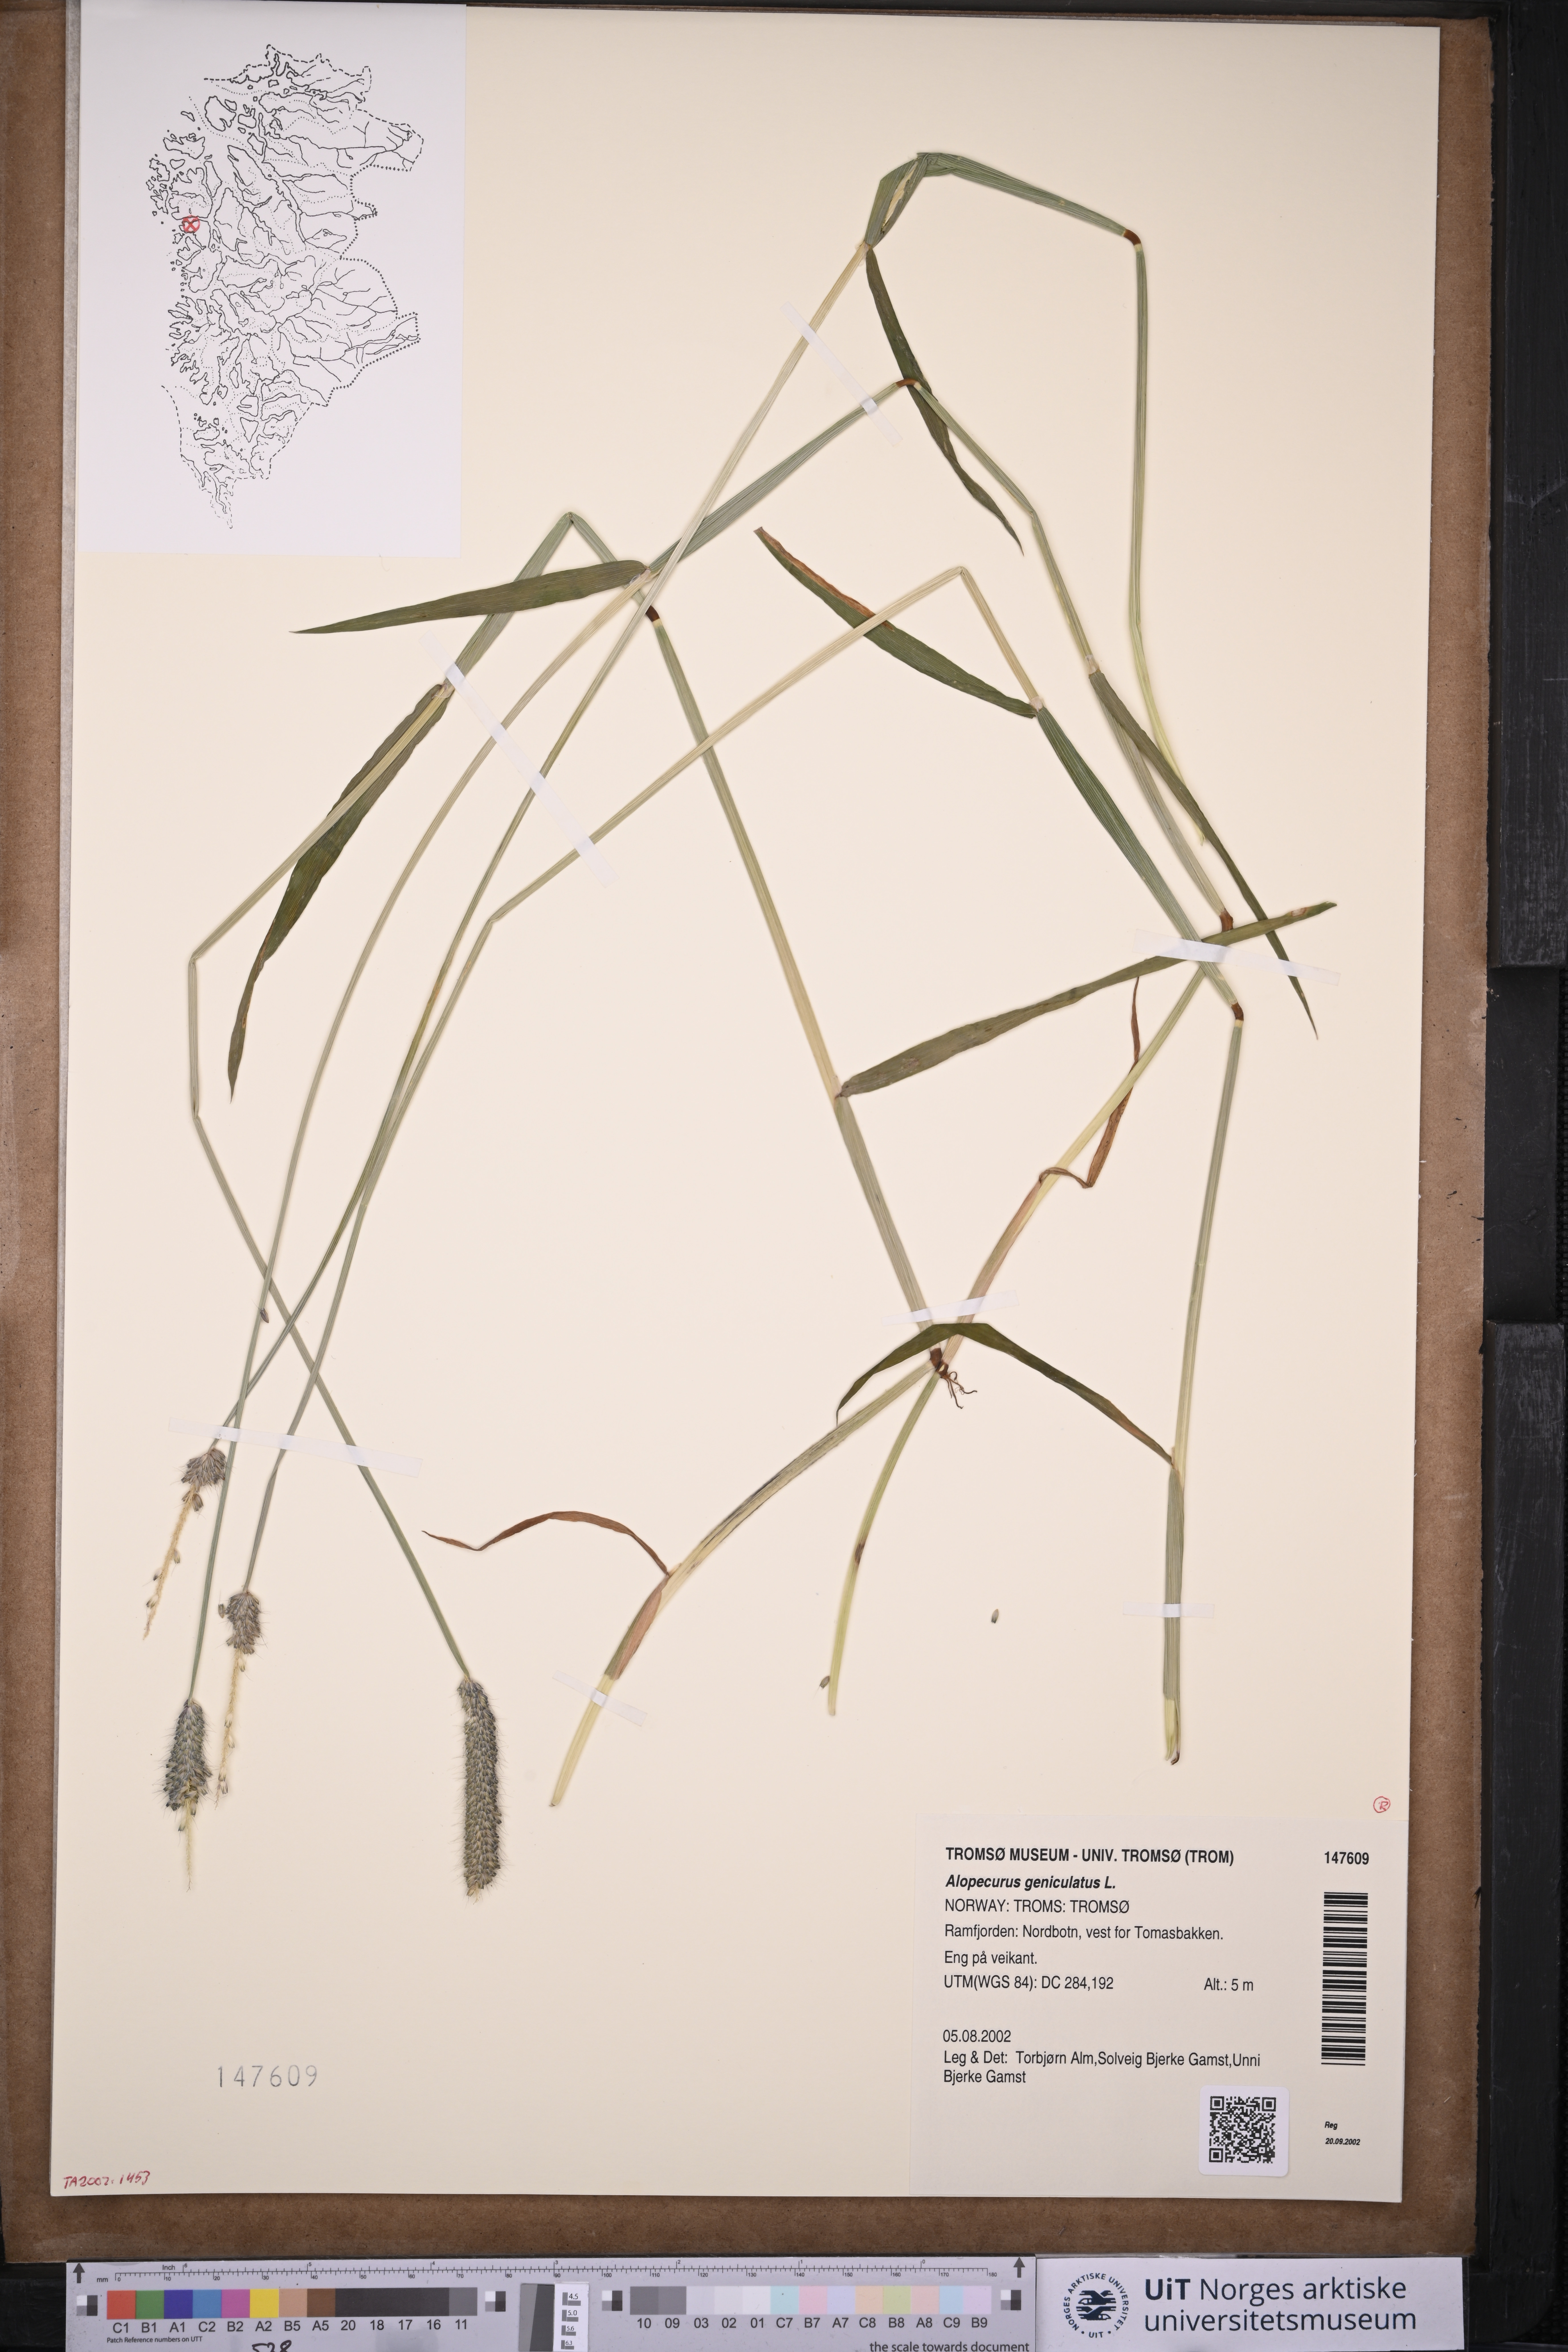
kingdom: Plantae
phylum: Tracheophyta
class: Liliopsida
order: Poales
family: Poaceae
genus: Alopecurus
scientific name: Alopecurus geniculatus
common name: Water foxtail
